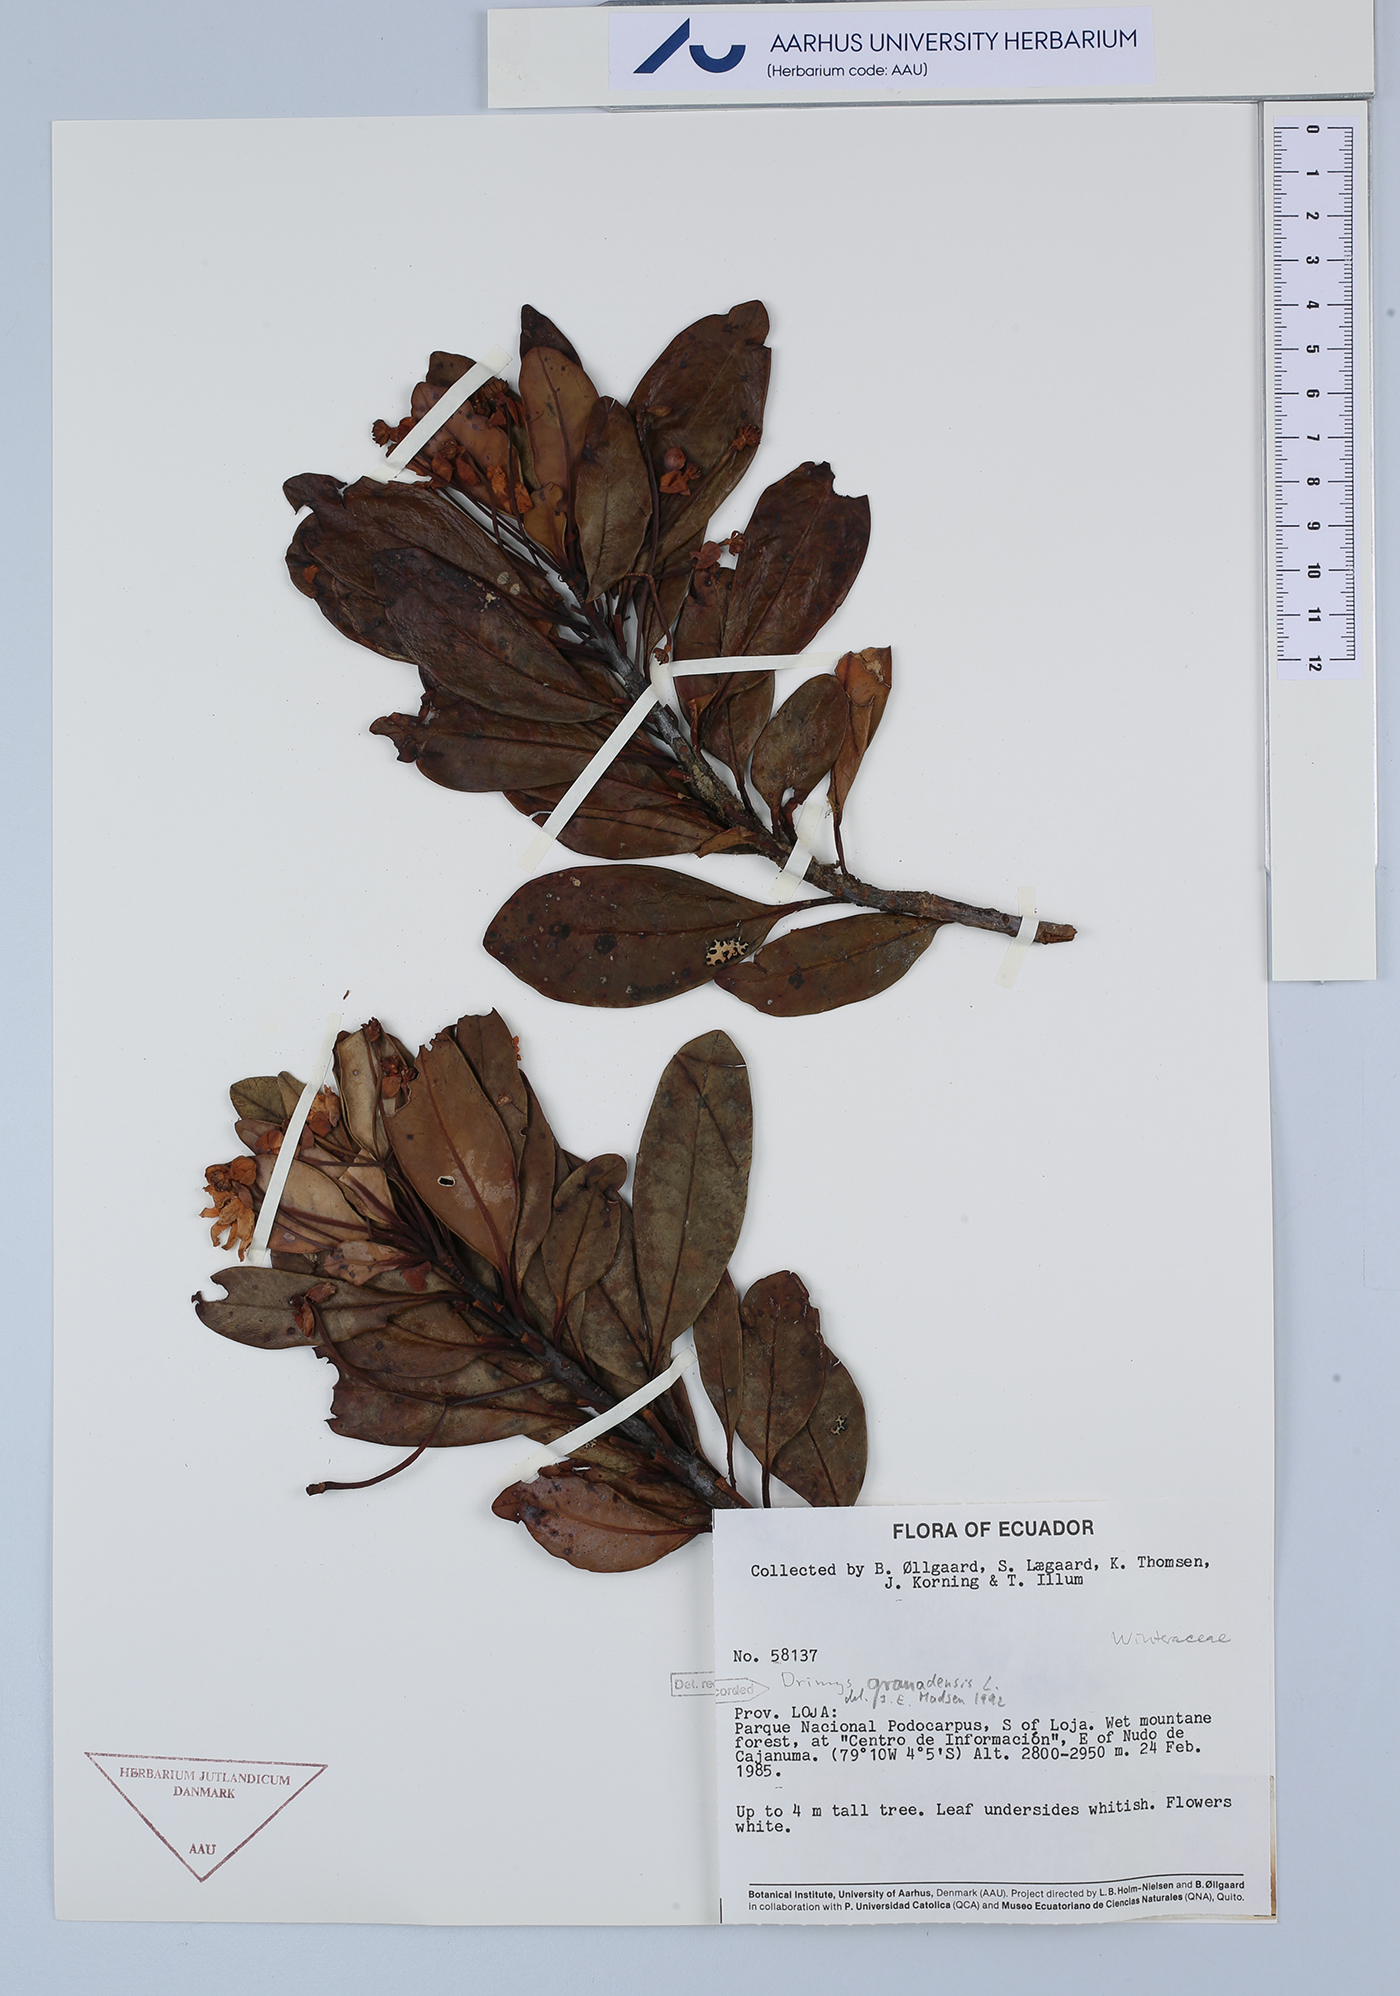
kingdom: Plantae
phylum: Tracheophyta
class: Magnoliopsida
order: Canellales
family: Winteraceae
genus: Drimys
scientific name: Drimys granadensis
